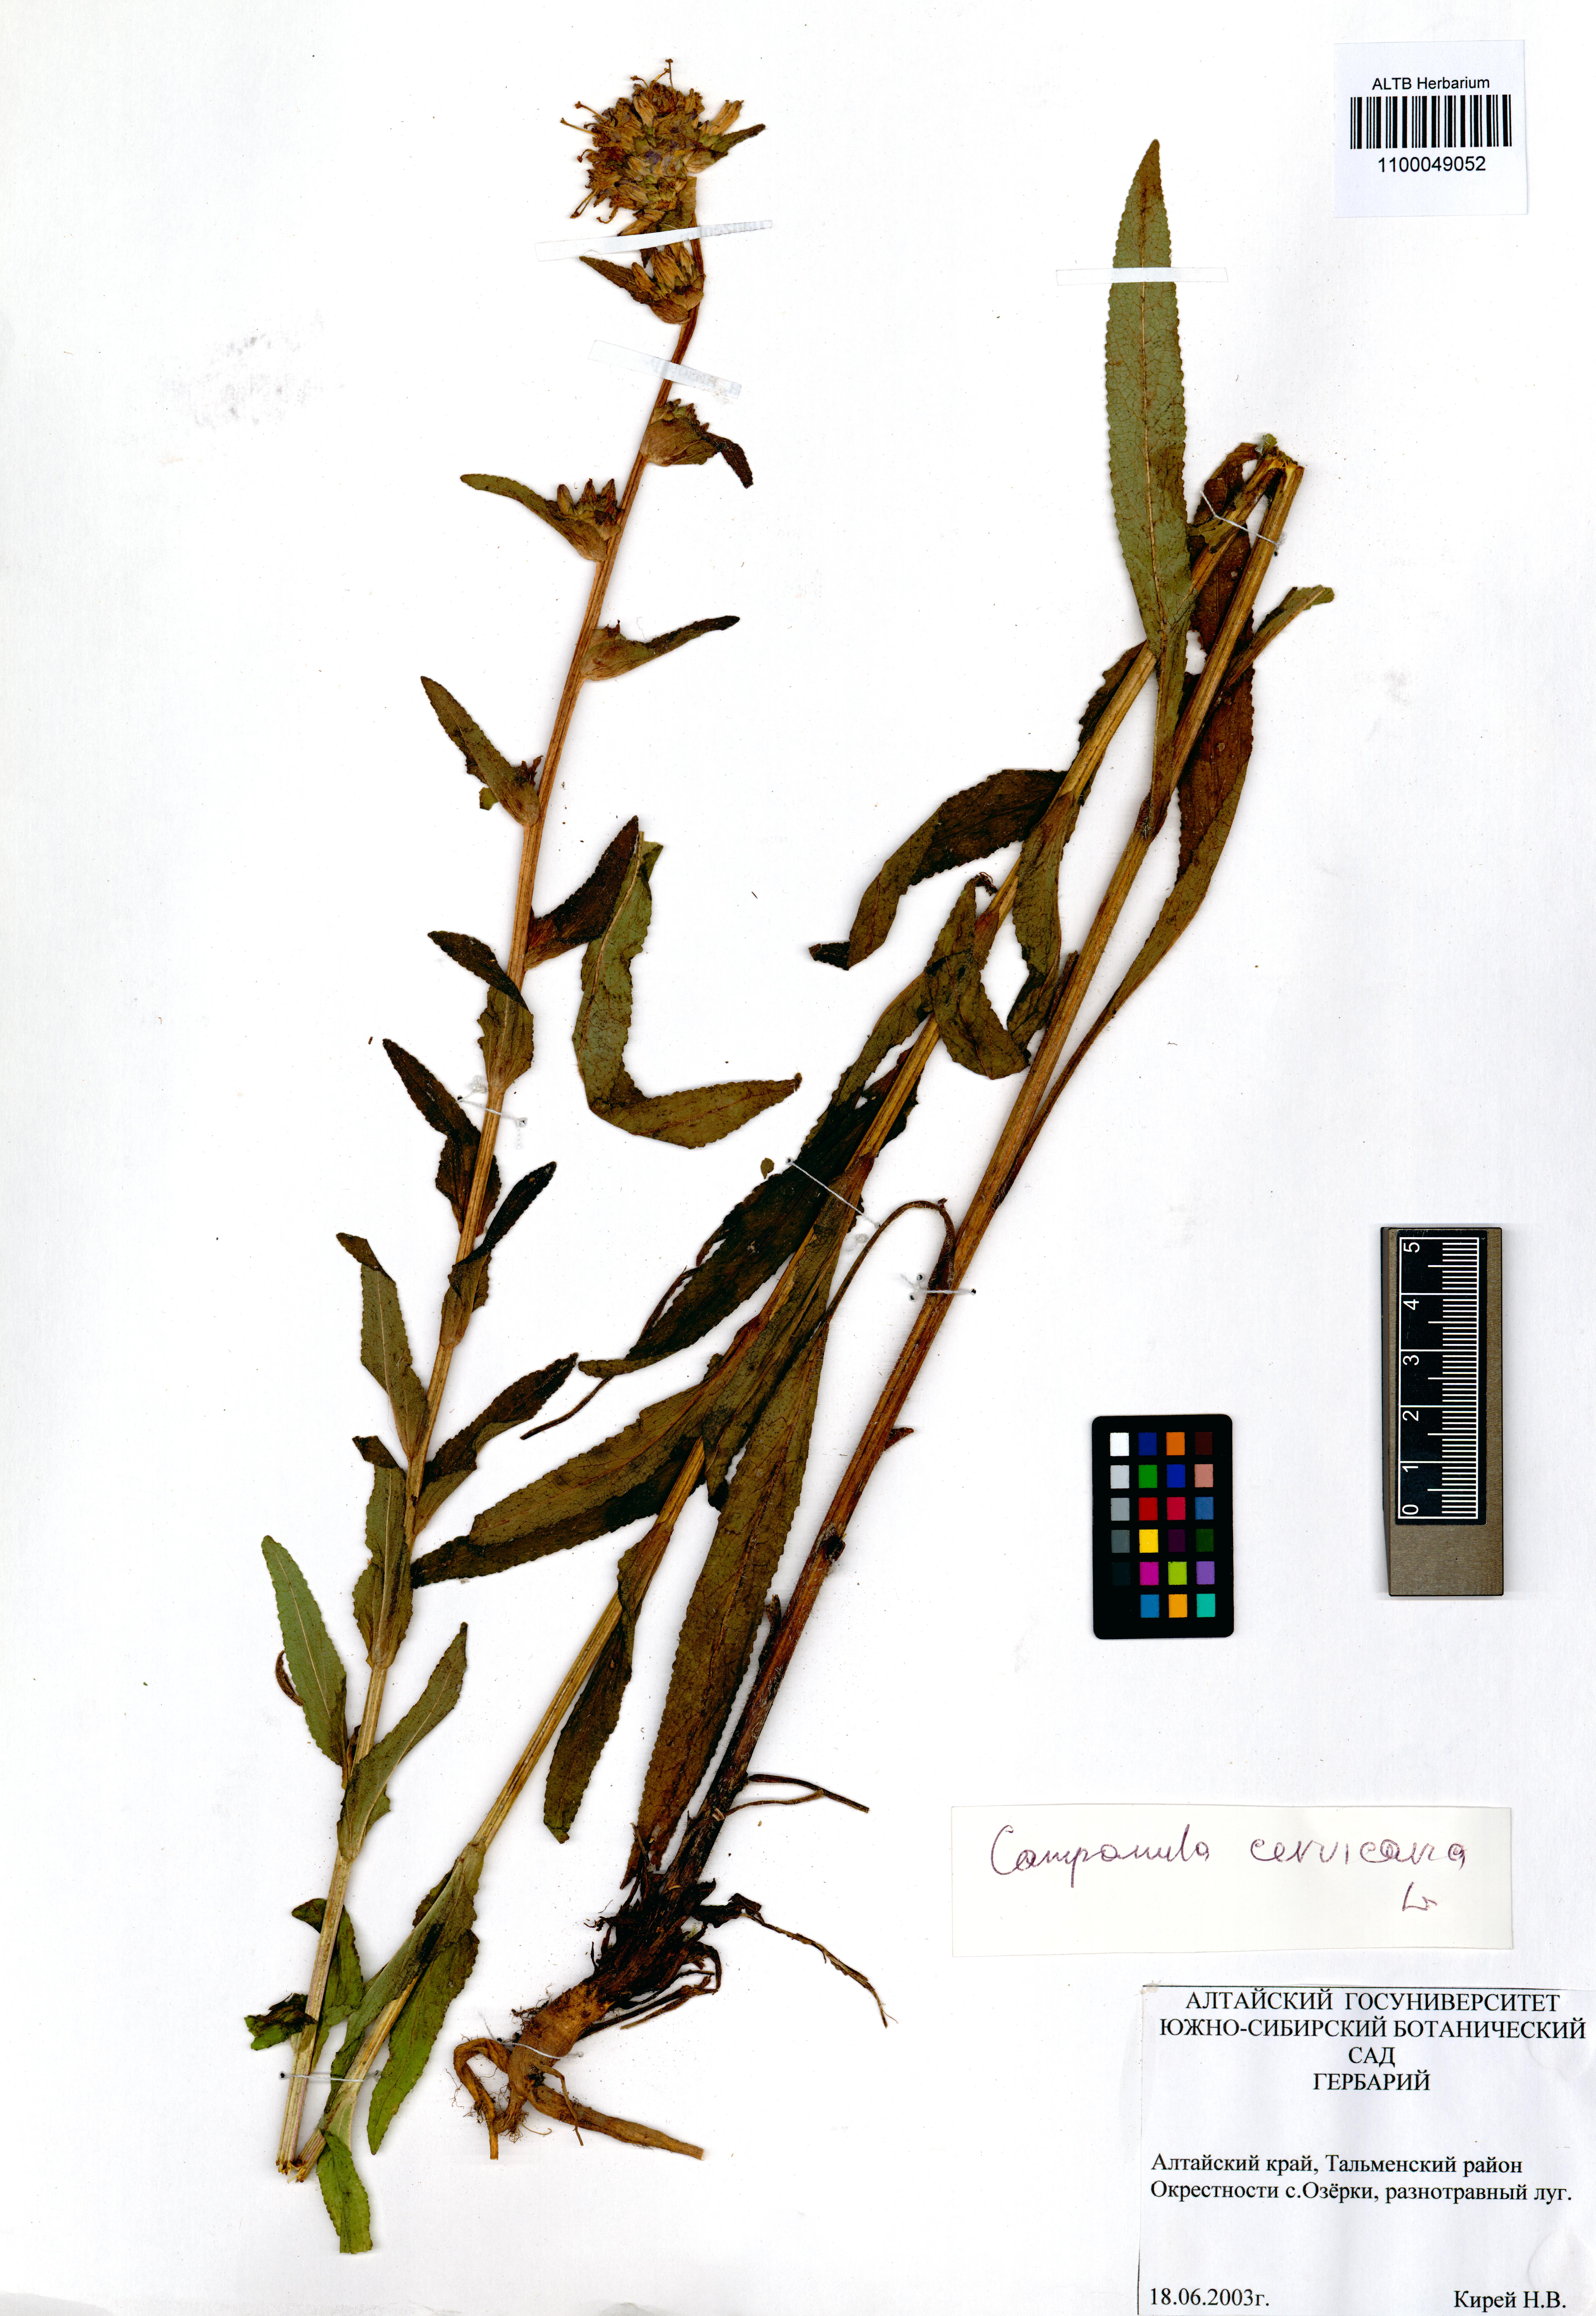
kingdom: Plantae
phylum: Tracheophyta
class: Magnoliopsida
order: Asterales
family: Campanulaceae
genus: Campanula
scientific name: Campanula cervicaria
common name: Bristly bellflower
